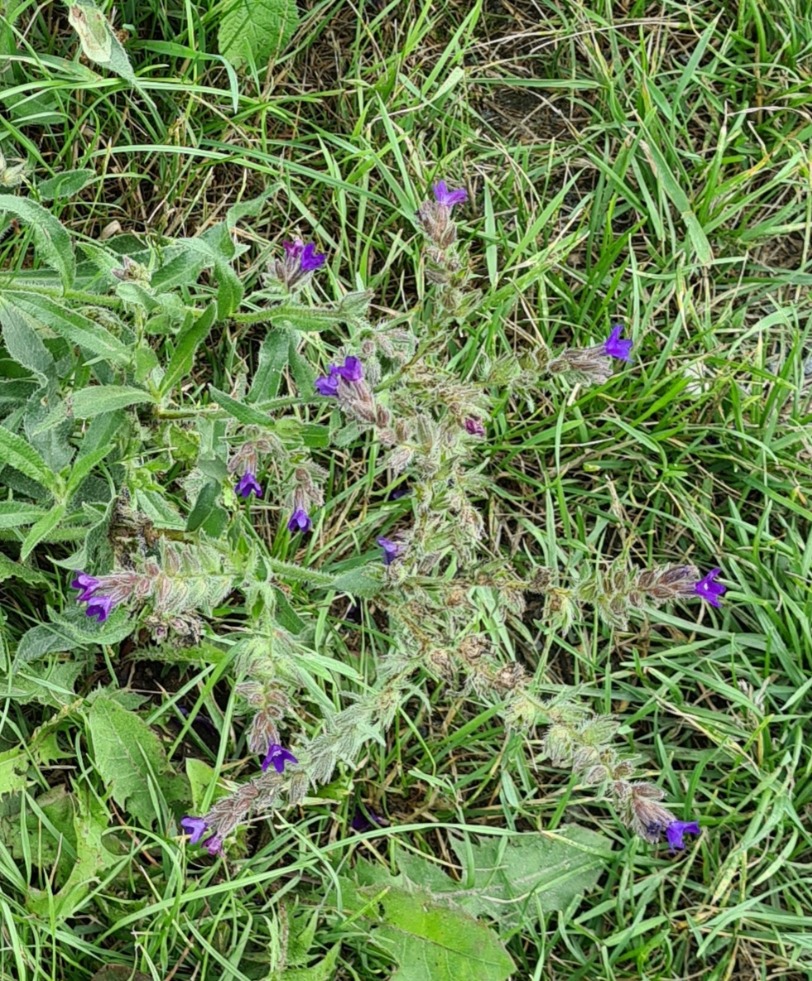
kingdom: Plantae
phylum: Tracheophyta
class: Magnoliopsida
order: Boraginales
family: Boraginaceae
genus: Anchusa
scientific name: Anchusa officinalis
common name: Læge-oksetunge
